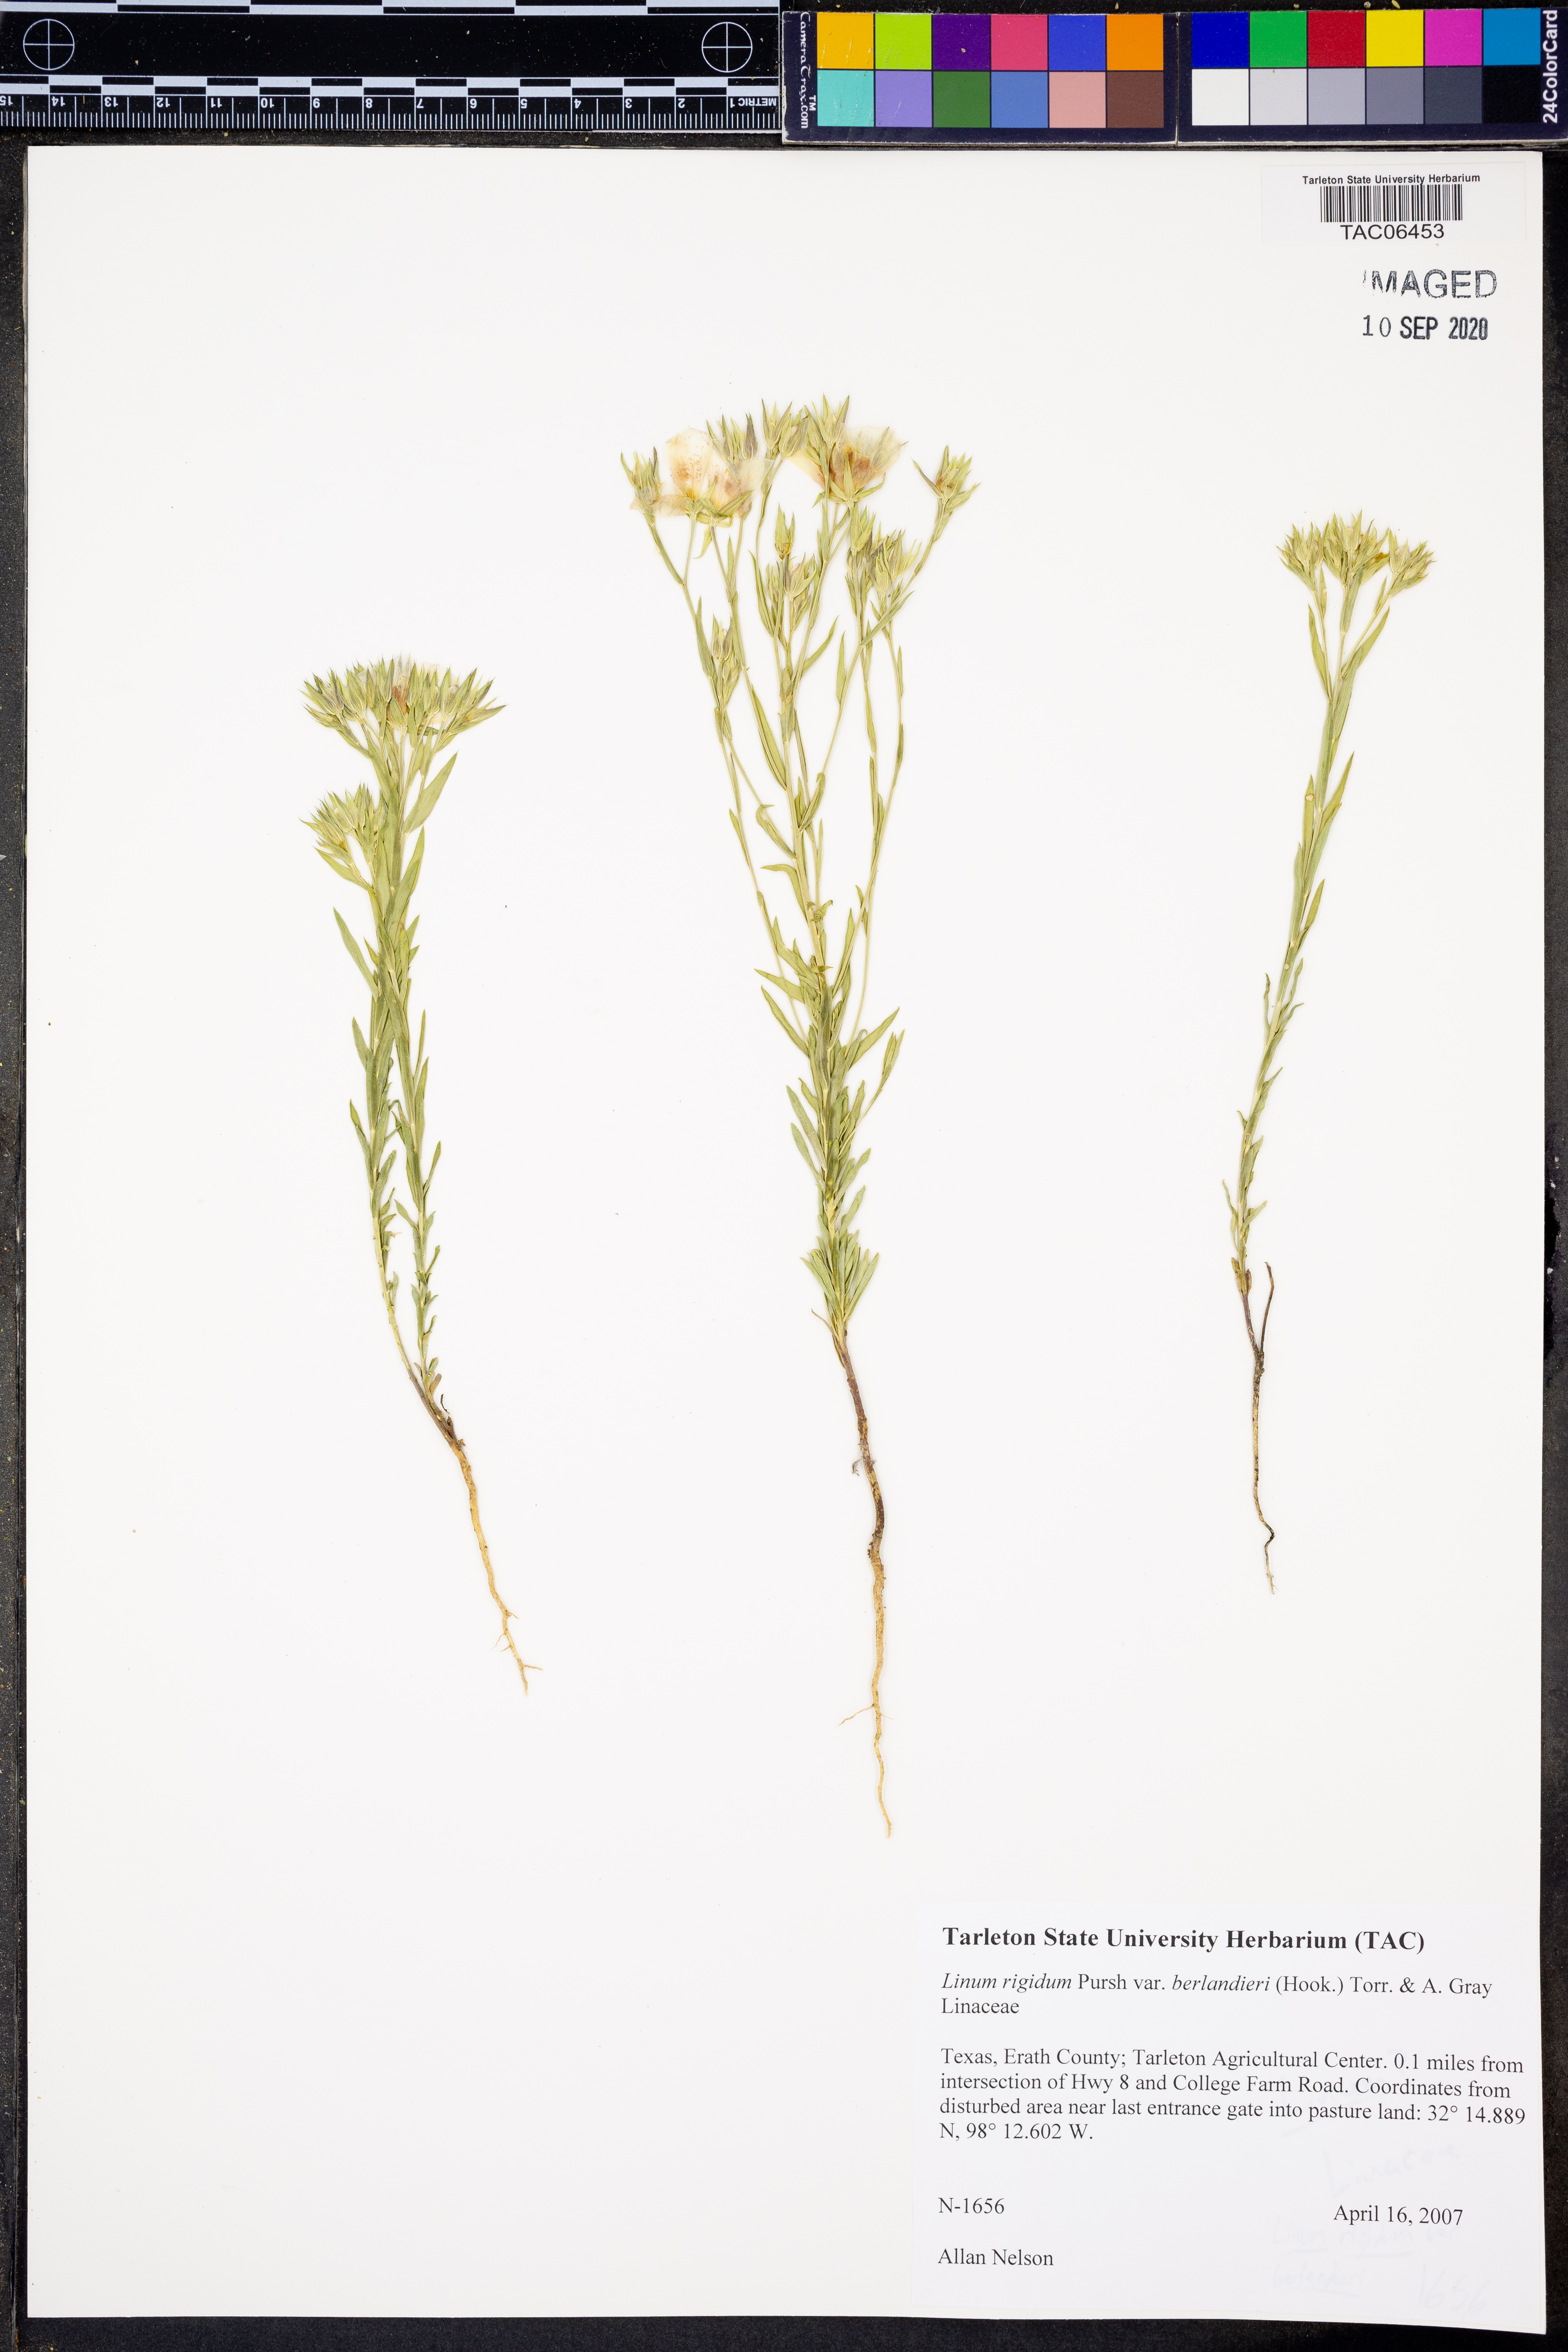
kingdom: Plantae
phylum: Tracheophyta
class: Magnoliopsida
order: Malpighiales
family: Linaceae
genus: Linum
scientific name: Linum berlandieri
